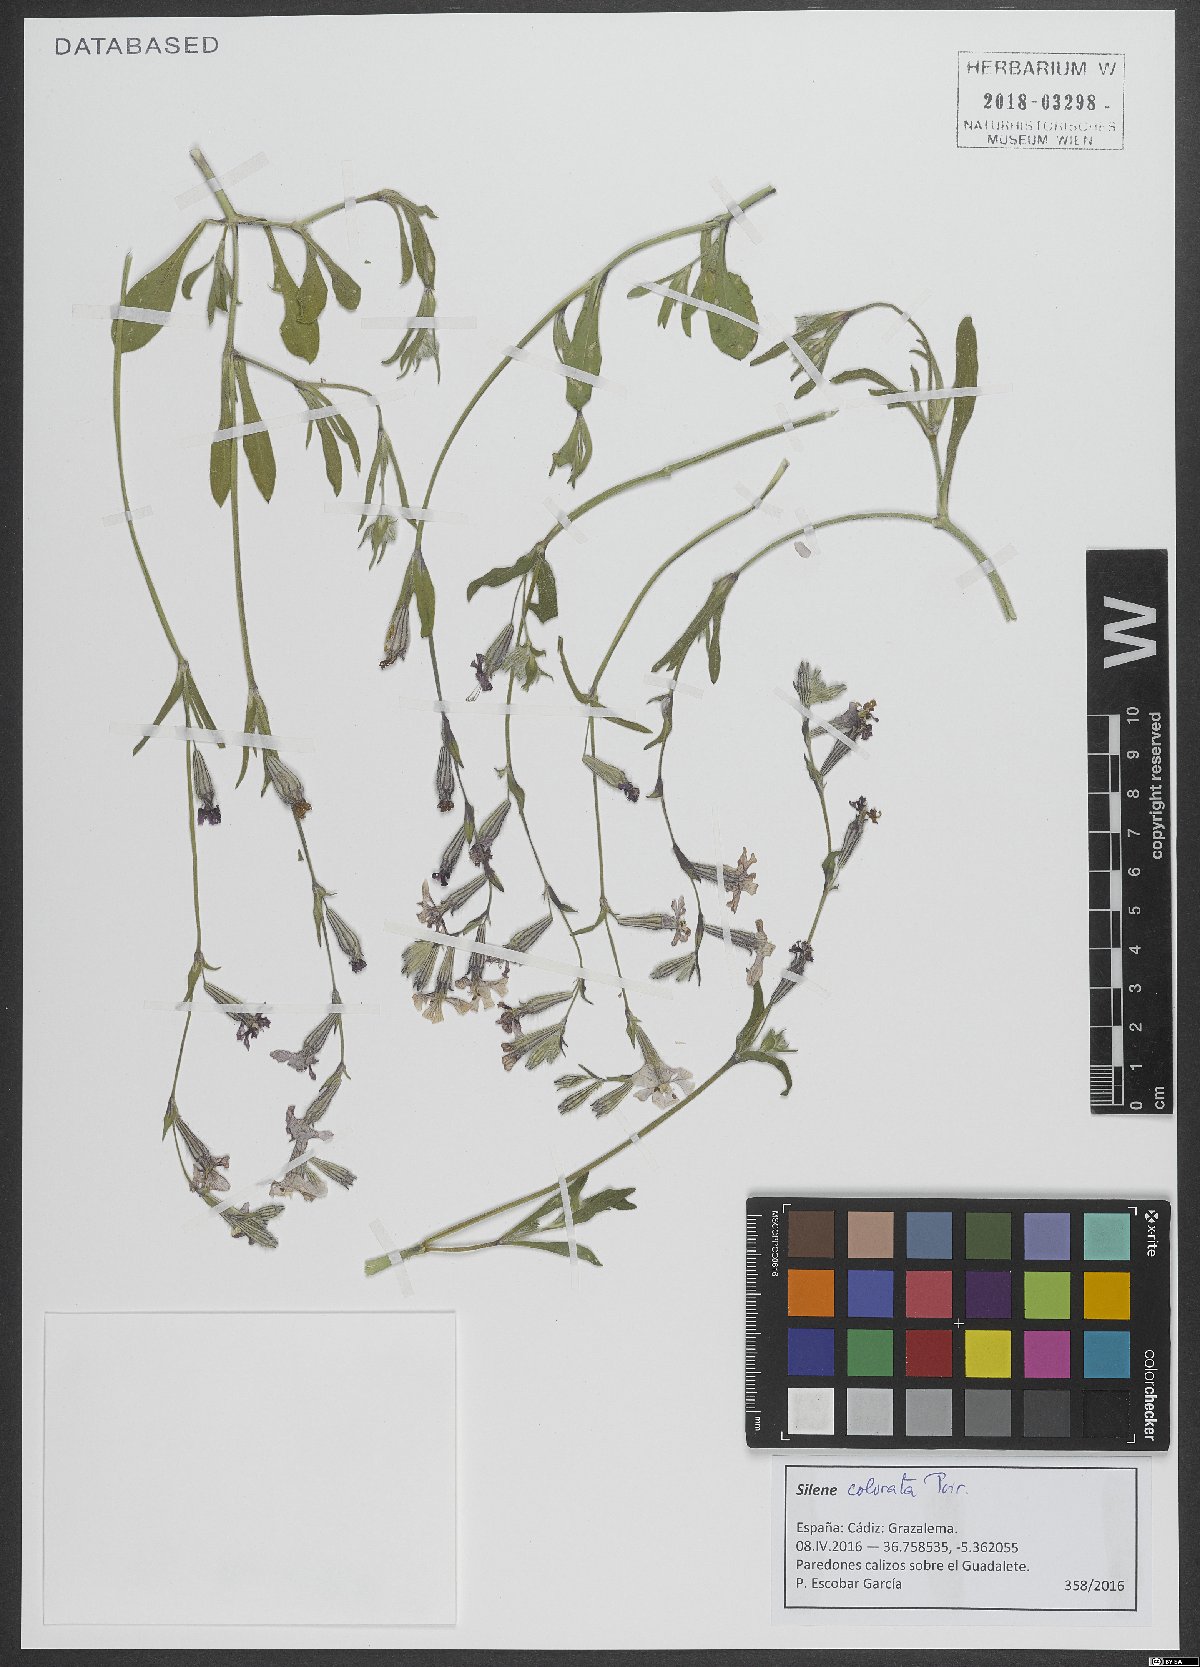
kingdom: Plantae
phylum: Tracheophyta
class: Magnoliopsida
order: Caryophyllales
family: Caryophyllaceae
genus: Silene
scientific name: Silene colorata
